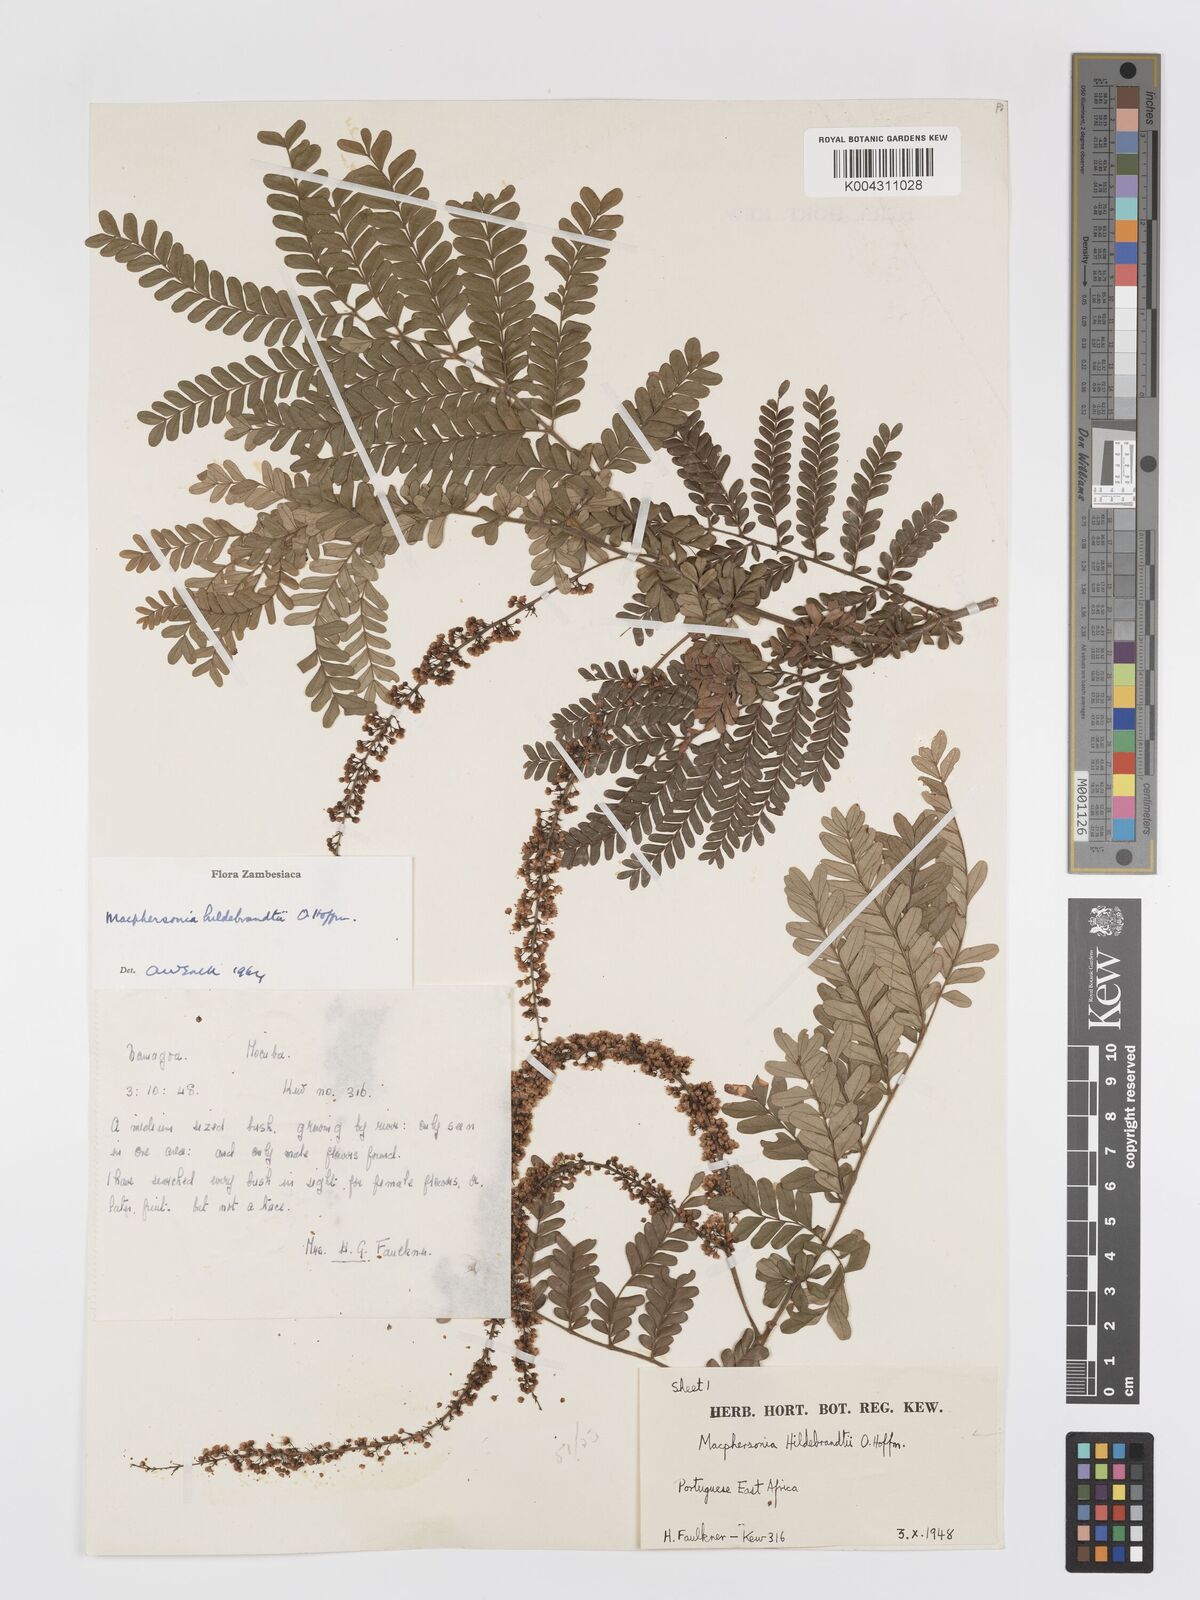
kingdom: Plantae
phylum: Tracheophyta
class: Magnoliopsida
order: Sapindales
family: Sapindaceae
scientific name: Sapindaceae
